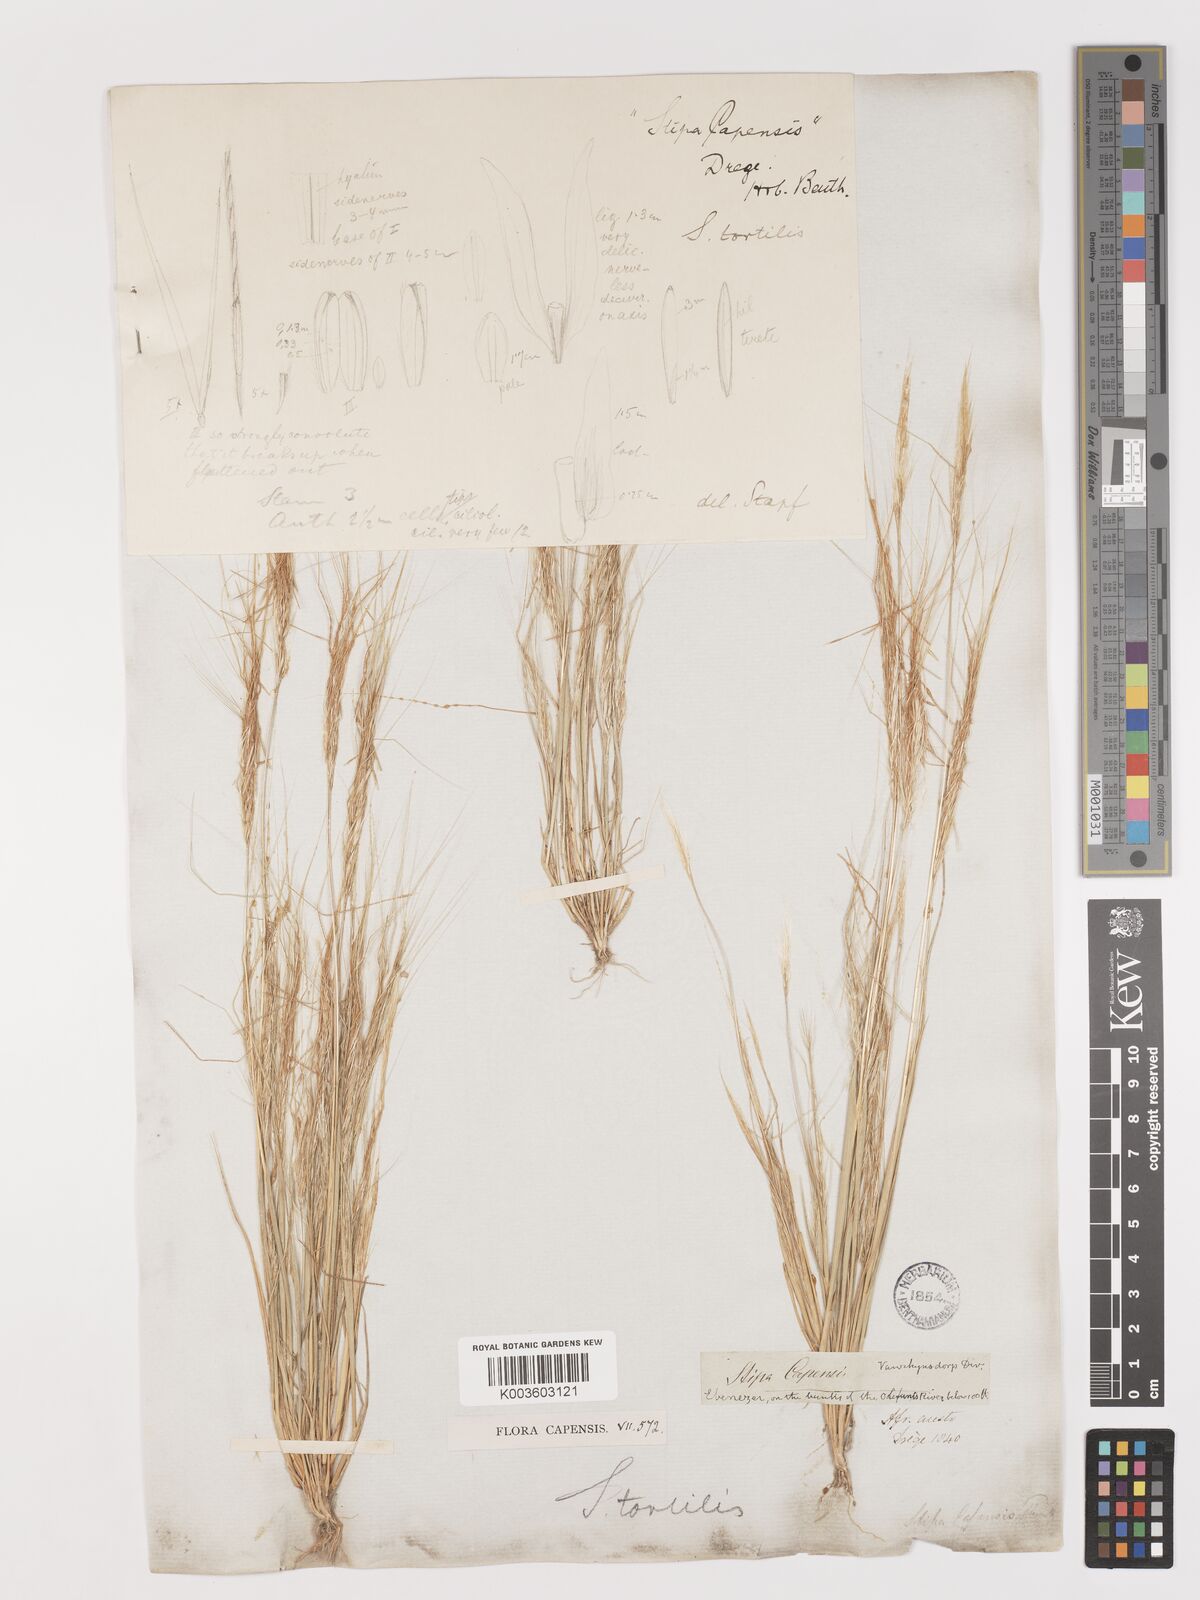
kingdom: Plantae
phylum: Tracheophyta
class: Liliopsida
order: Poales
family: Poaceae
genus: Stipellula
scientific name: Stipellula capensis
